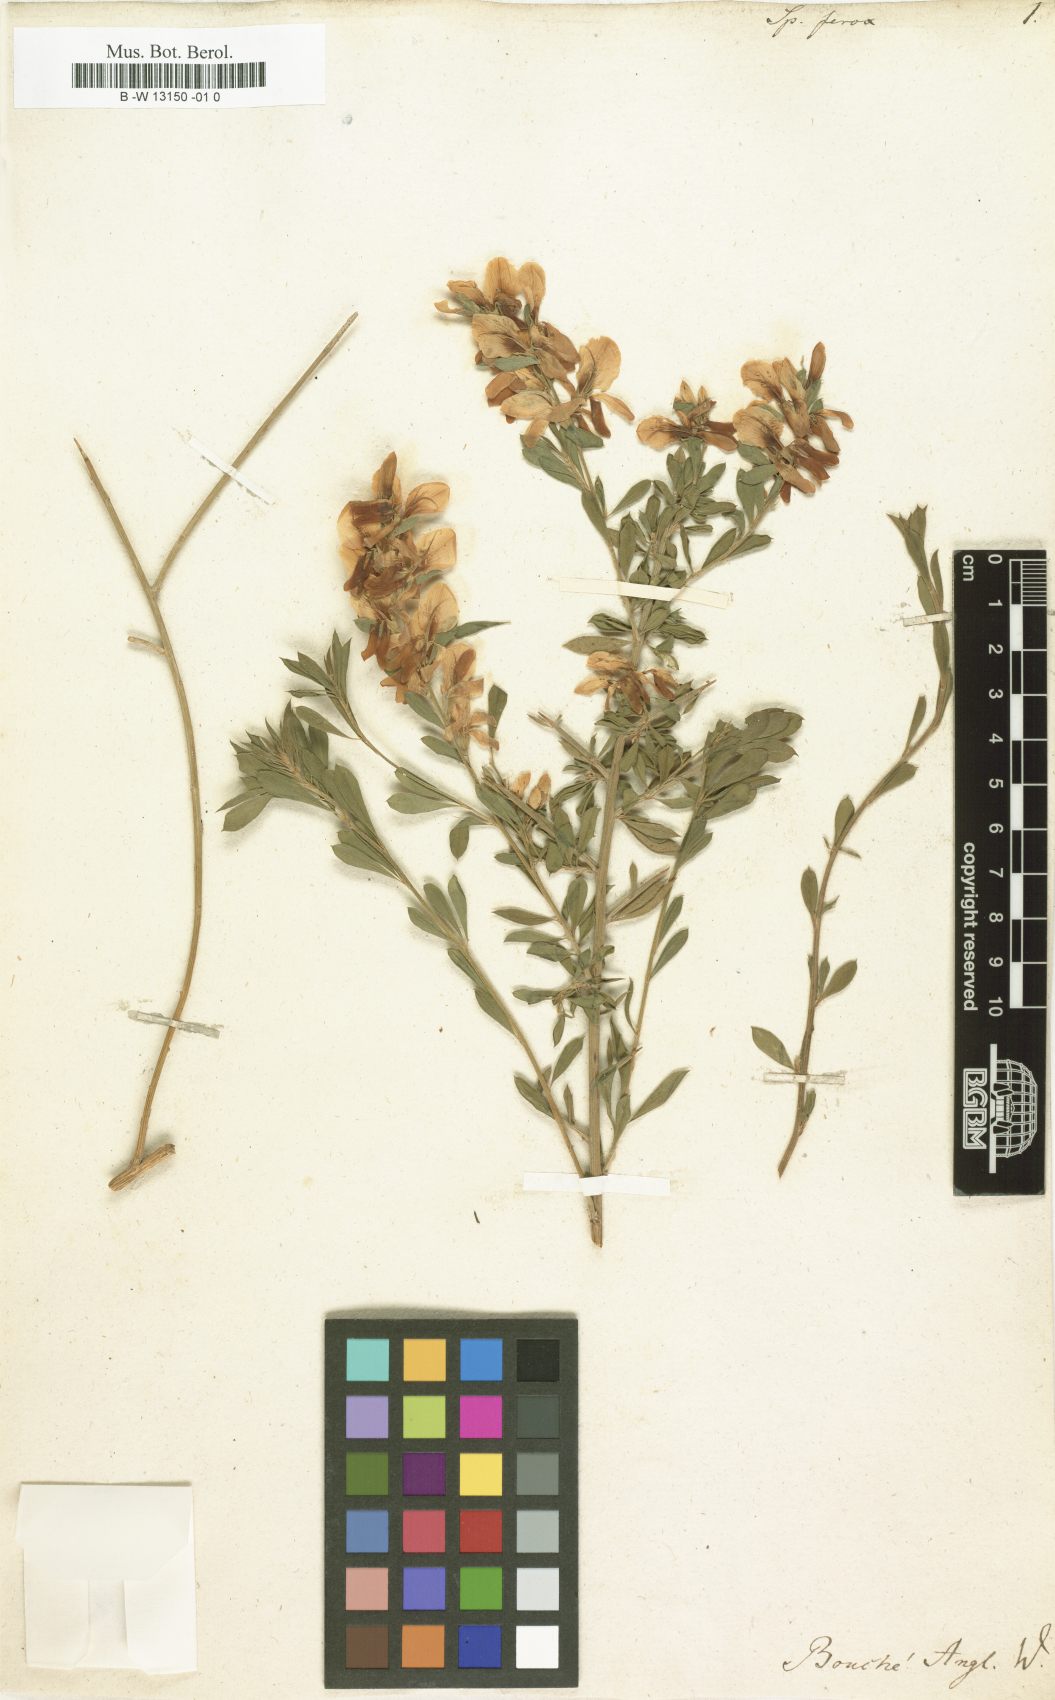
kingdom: Plantae
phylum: Tracheophyta
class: Magnoliopsida
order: Fabales
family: Fabaceae
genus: Genista
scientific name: Genista ferox
